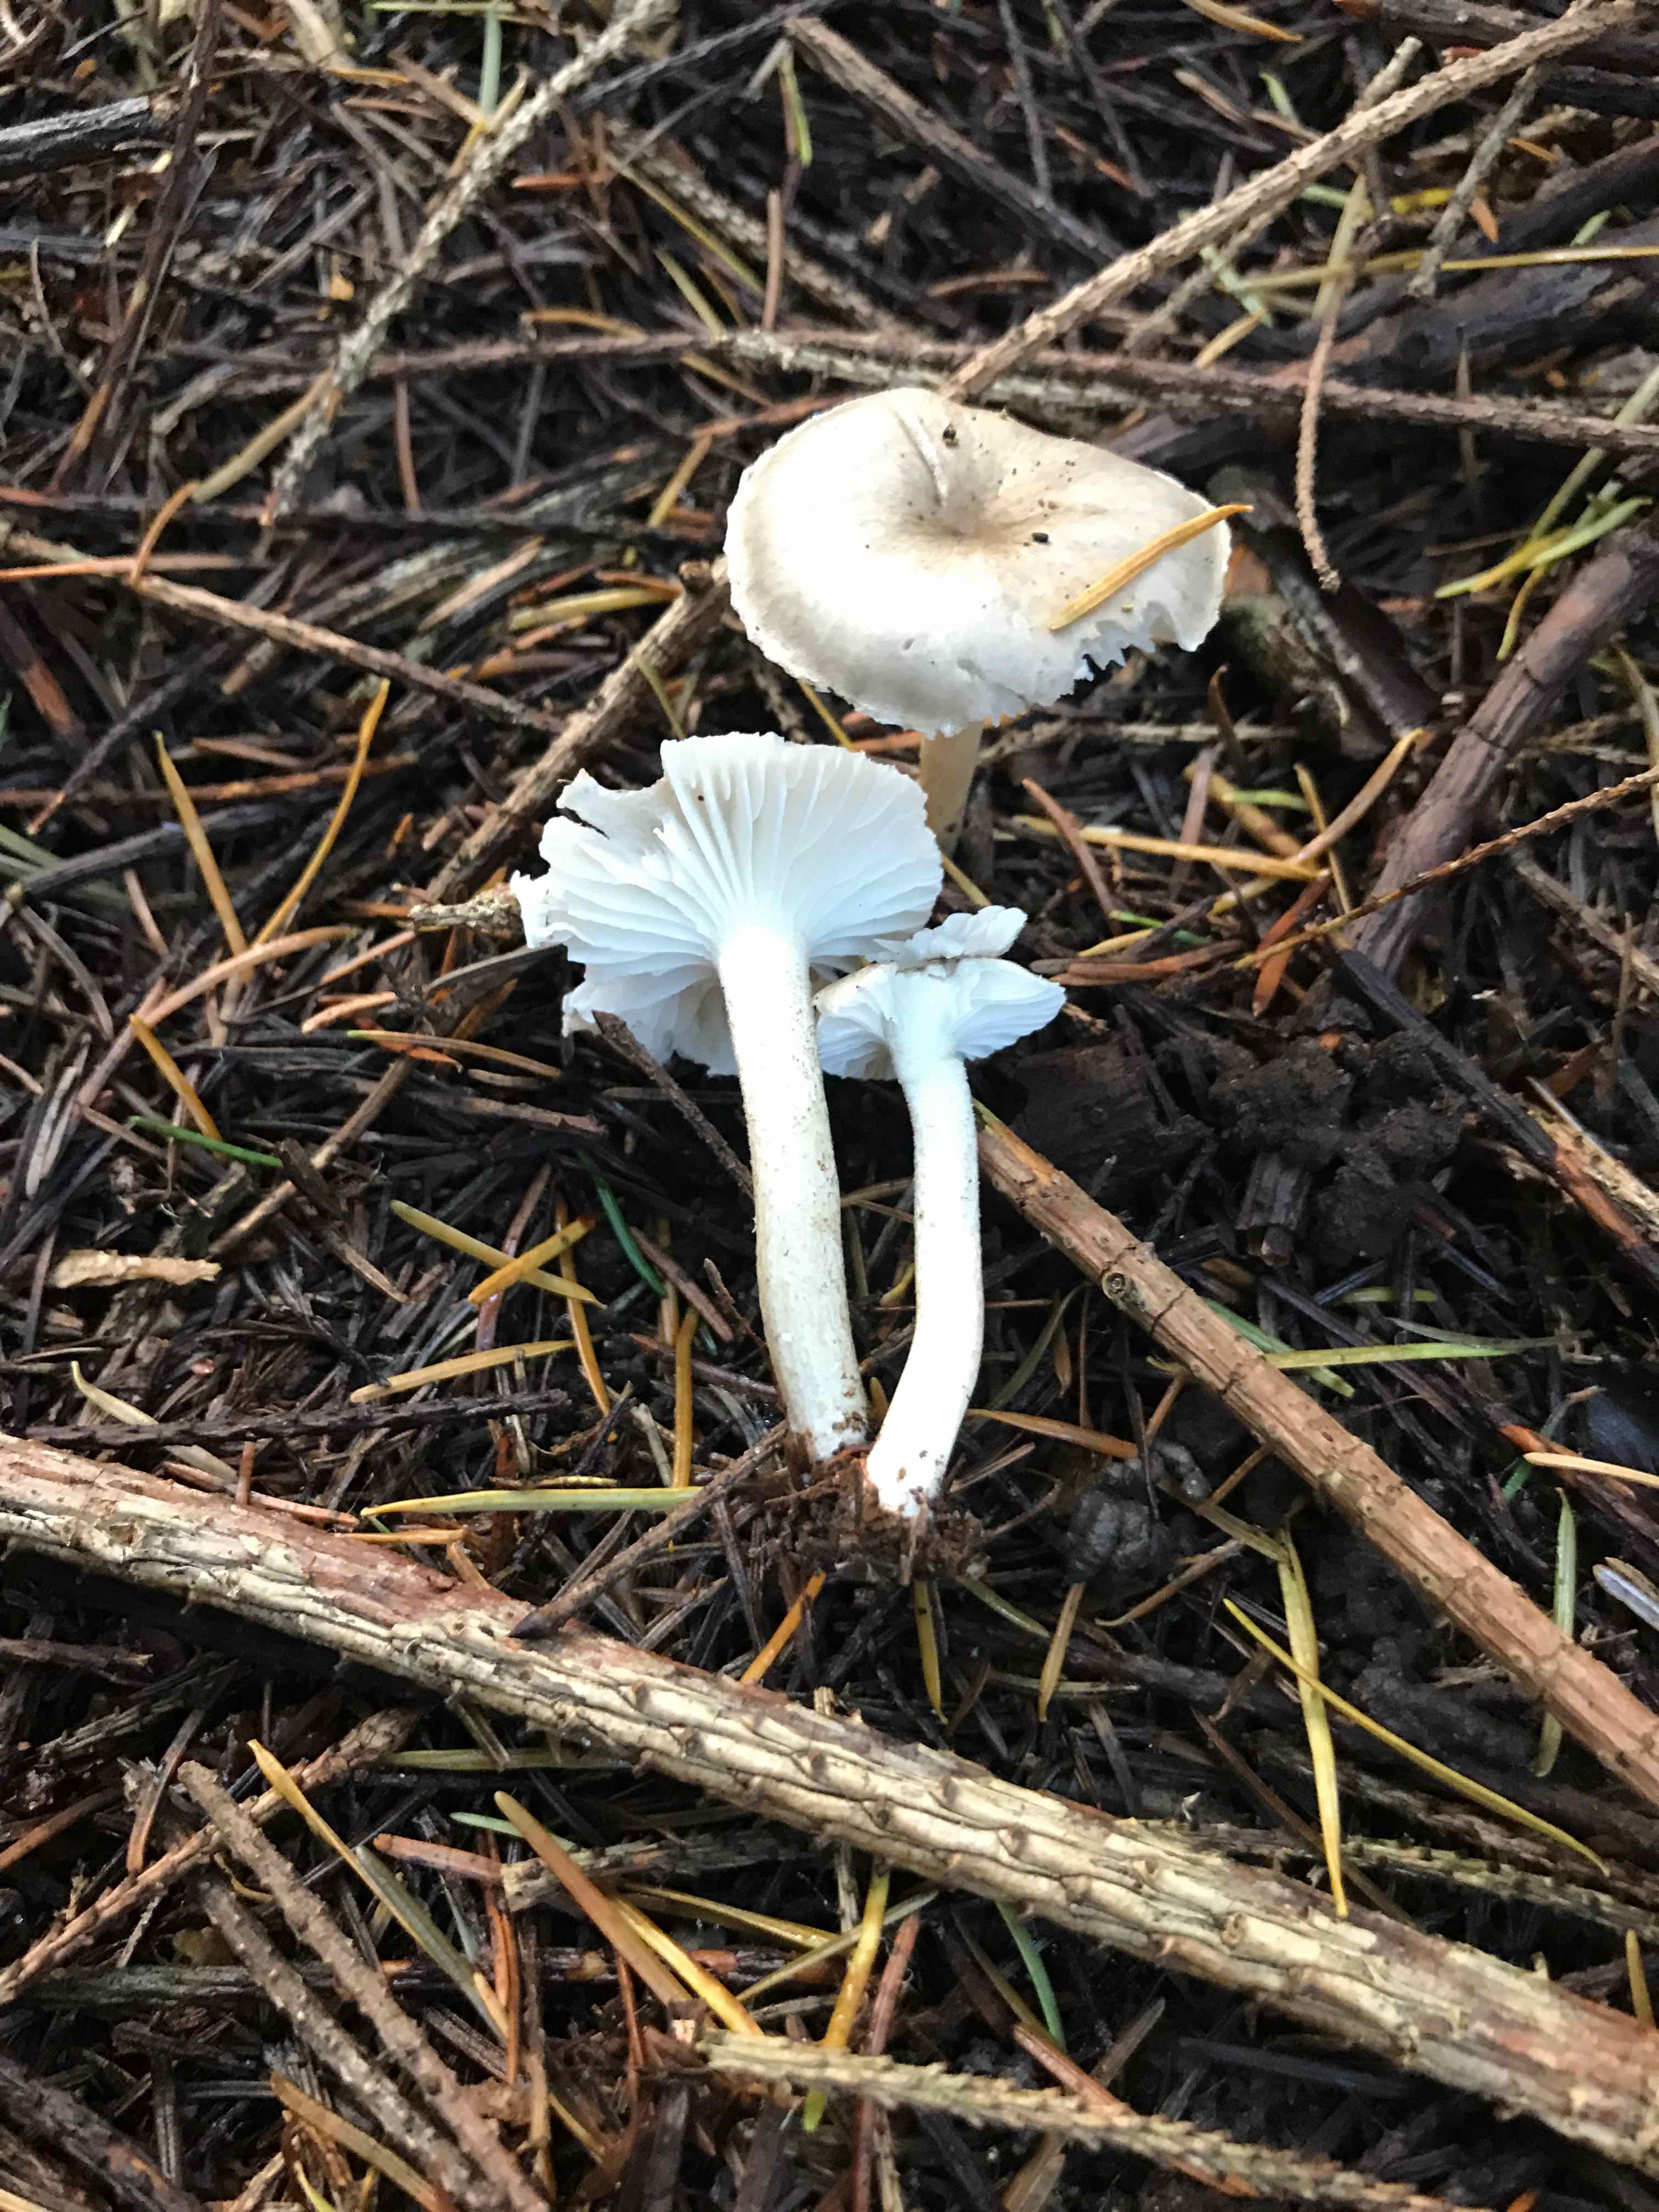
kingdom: Fungi
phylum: Basidiomycota
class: Agaricomycetes
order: Agaricales
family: Hygrophoraceae
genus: Hygrophorus
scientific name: Hygrophorus pustulatus
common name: mørkprikket sneglehat
